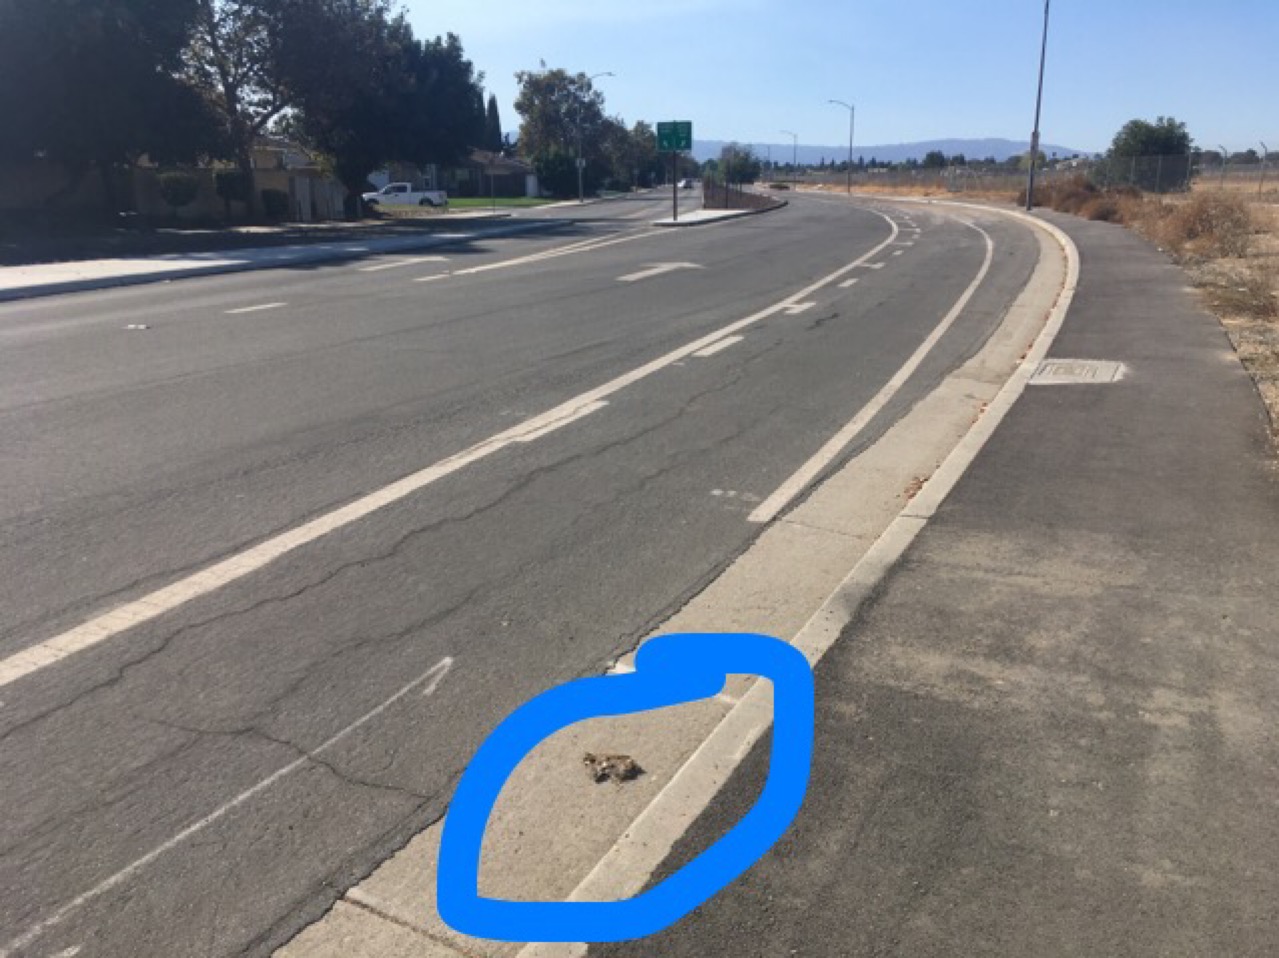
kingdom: Animalia
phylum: Chordata
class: Mammalia
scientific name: Mammalia
